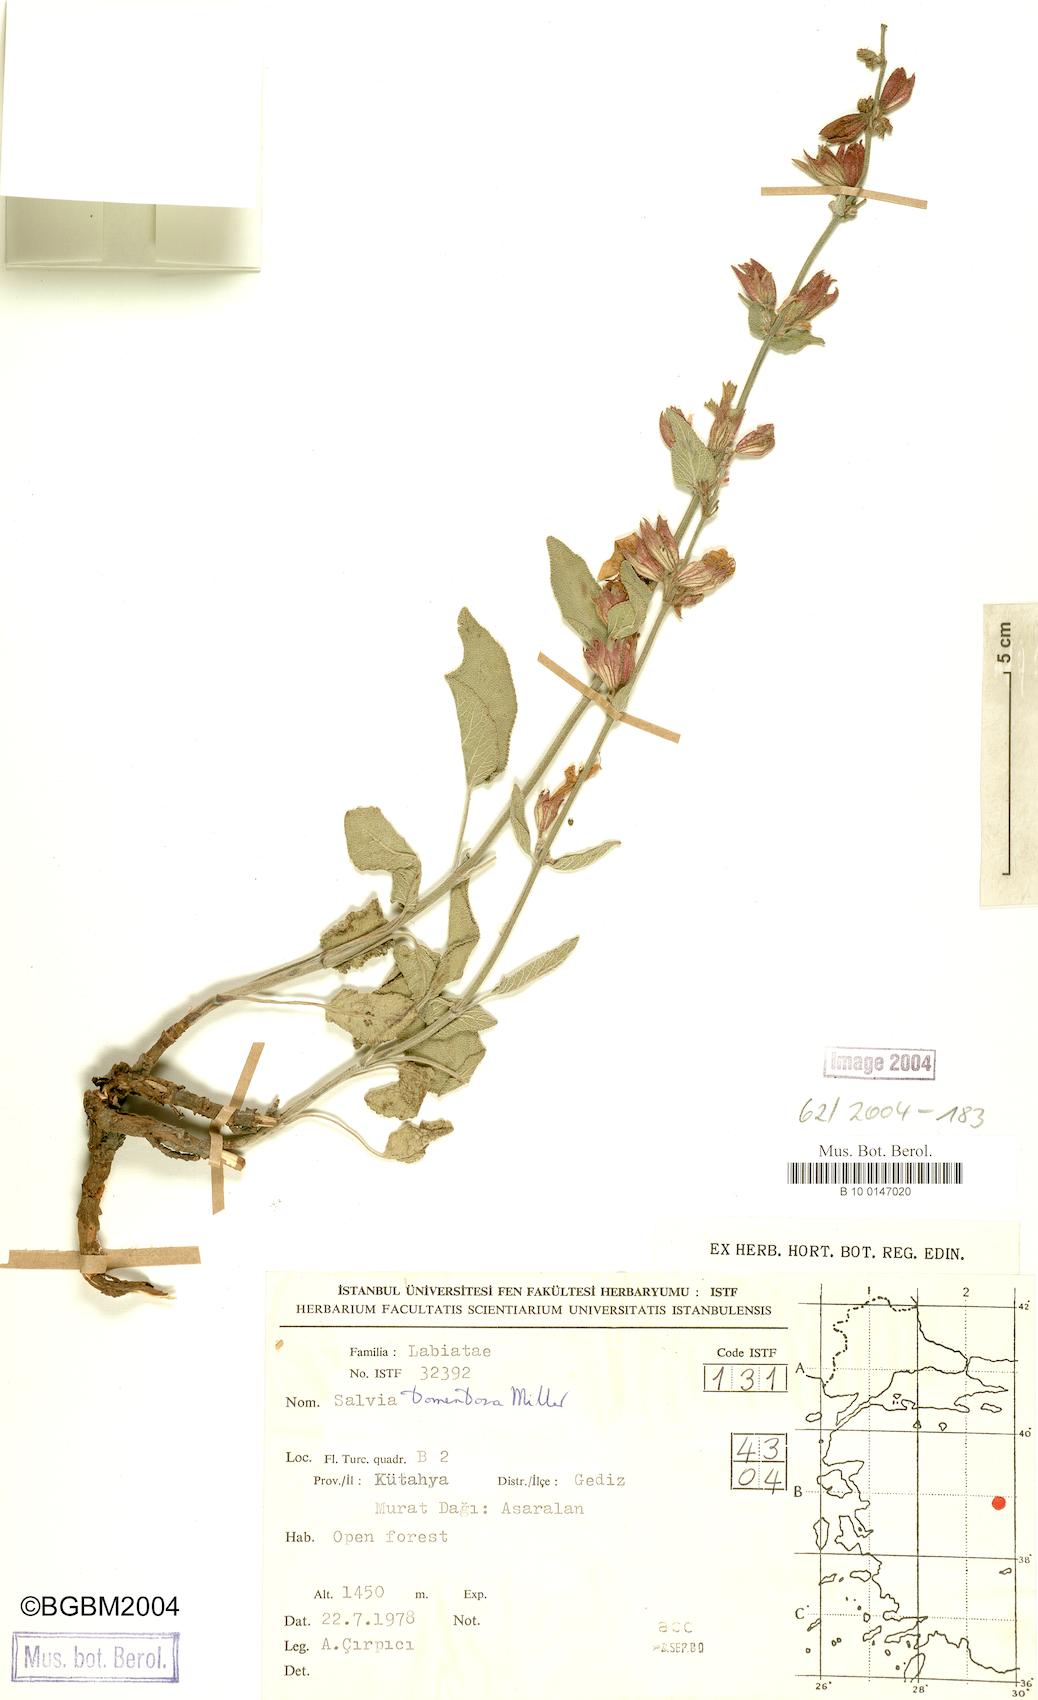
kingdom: Plantae
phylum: Tracheophyta
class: Magnoliopsida
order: Lamiales
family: Lamiaceae
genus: Salvia
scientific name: Salvia tomentosa
